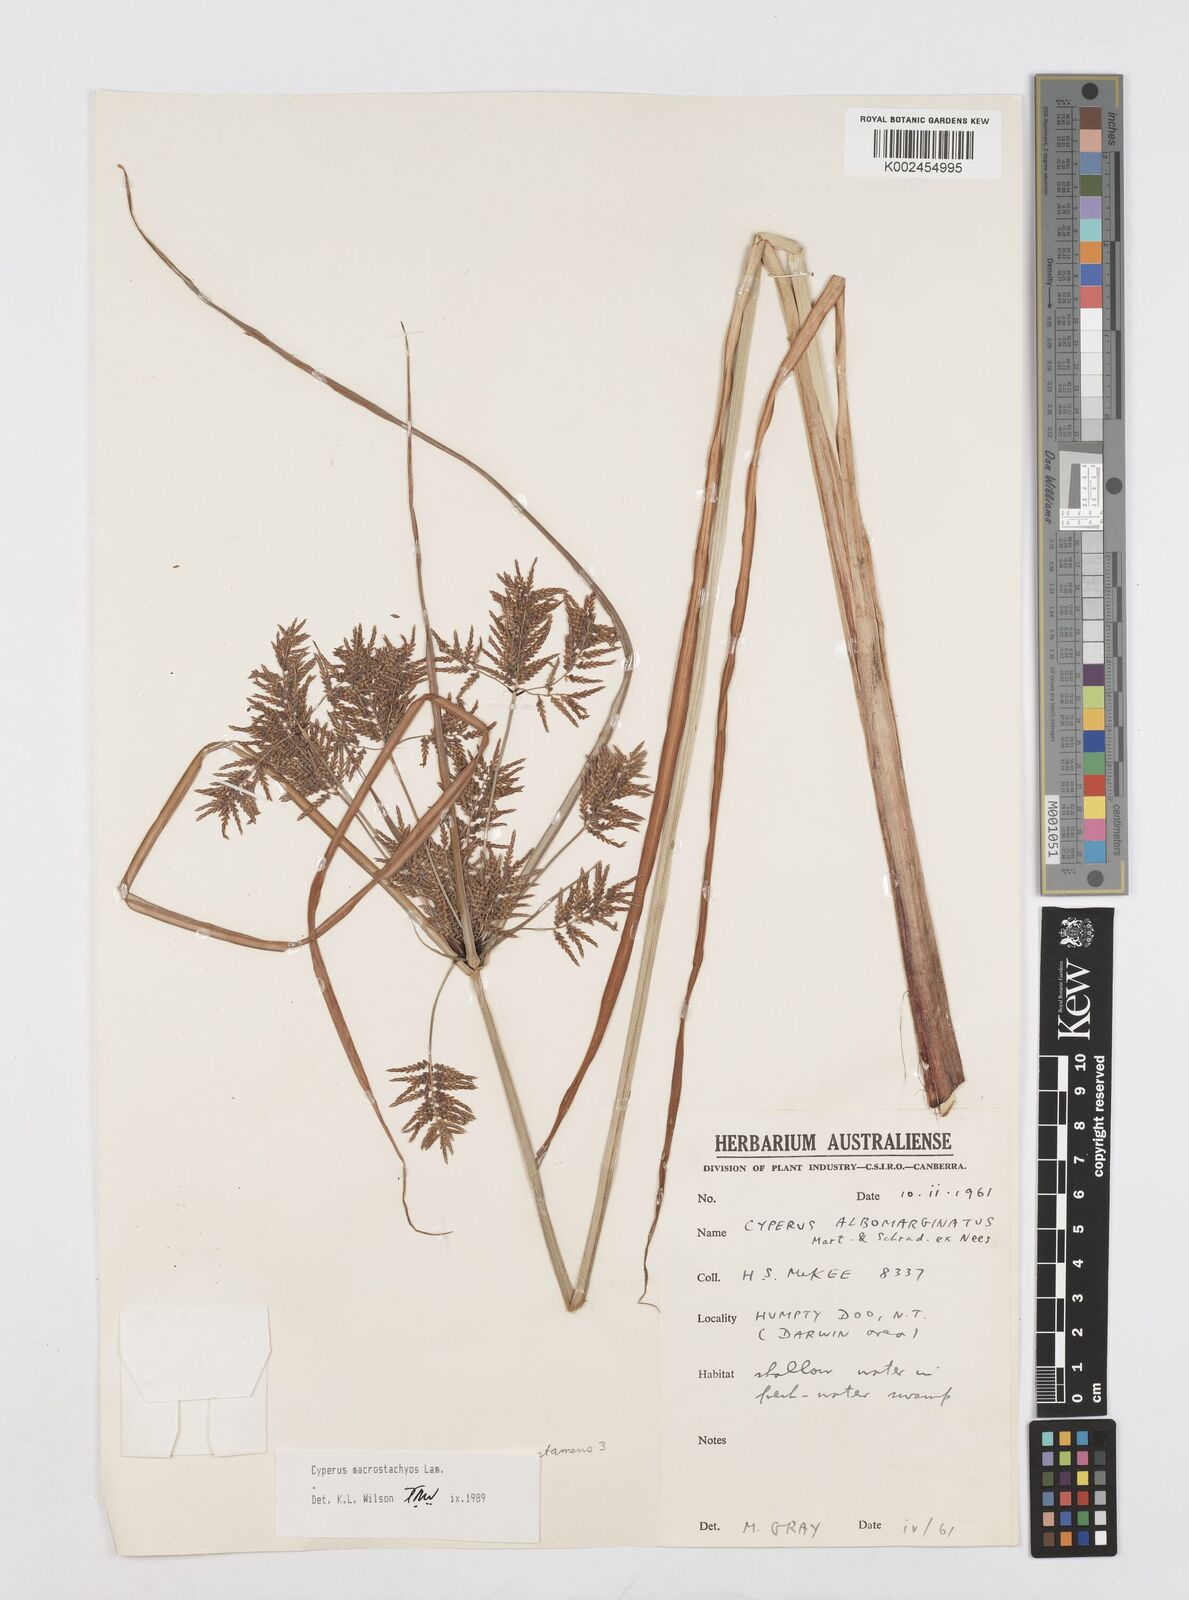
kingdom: Plantae
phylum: Tracheophyta
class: Liliopsida
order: Poales
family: Cyperaceae
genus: Cyperus
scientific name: Cyperus macrostachyos
